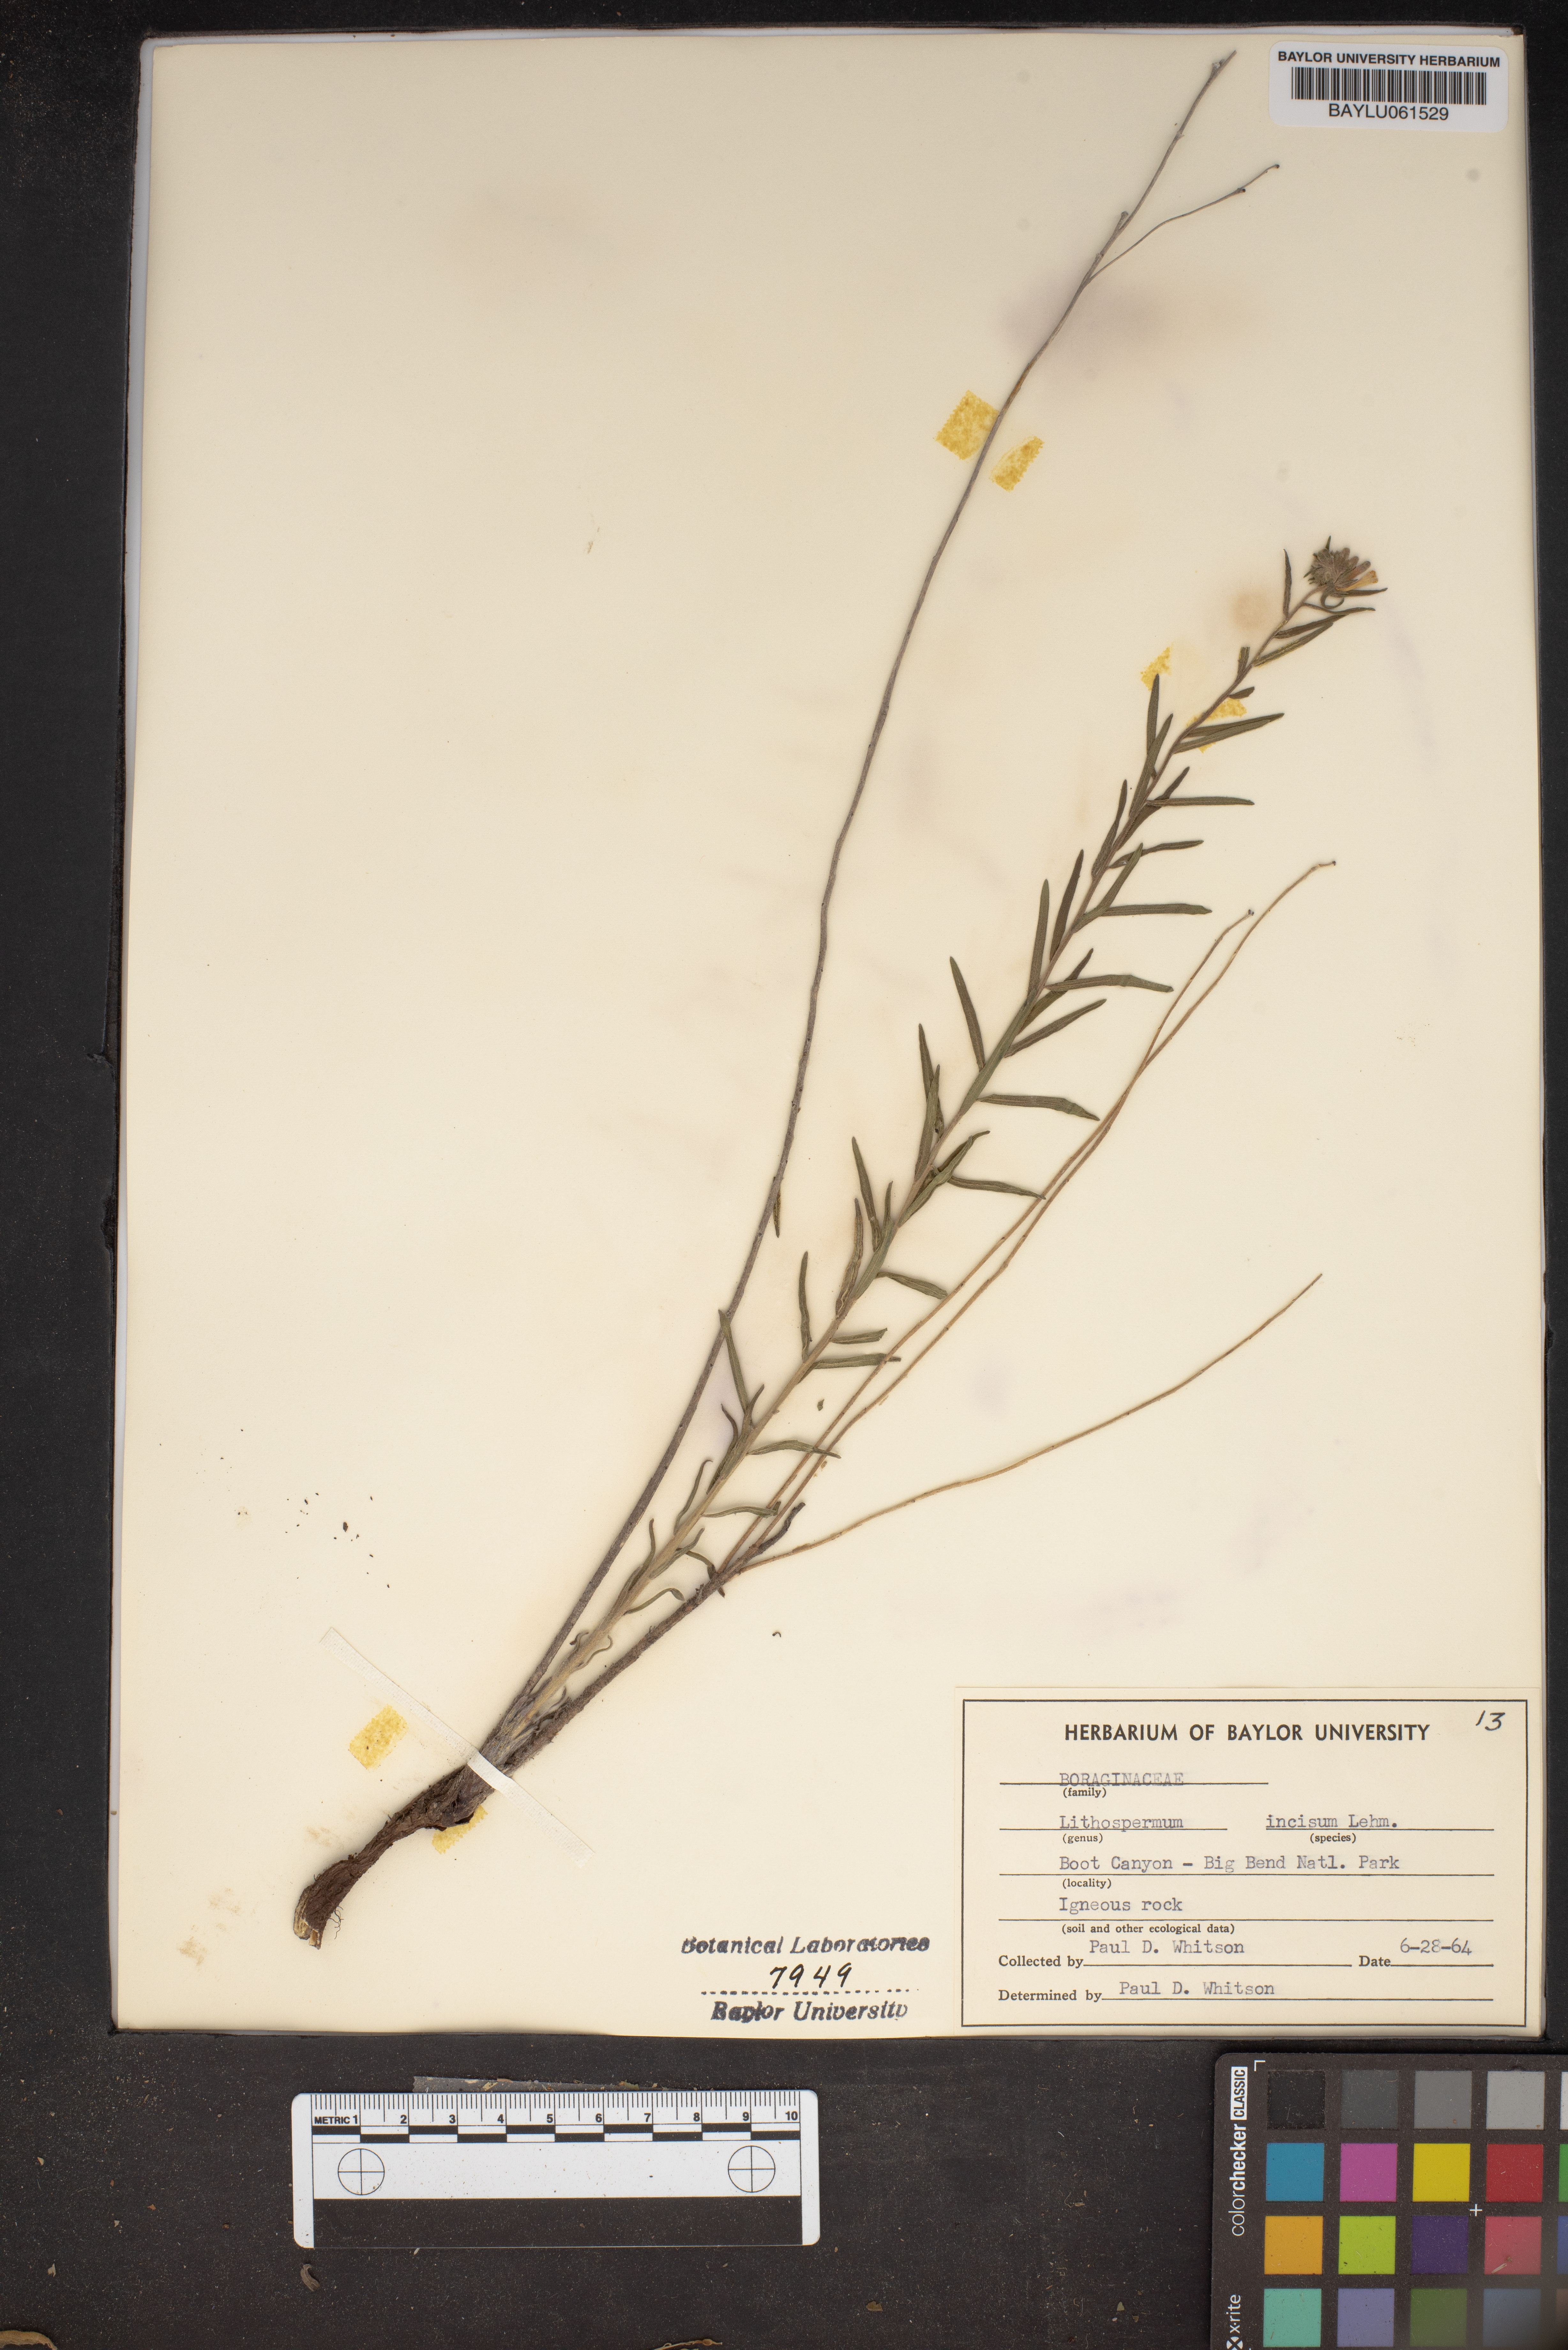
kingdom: Plantae
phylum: Tracheophyta
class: Magnoliopsida
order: Boraginales
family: Boraginaceae
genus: Lithospermum
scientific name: Lithospermum incisum
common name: Fringed gromwell
